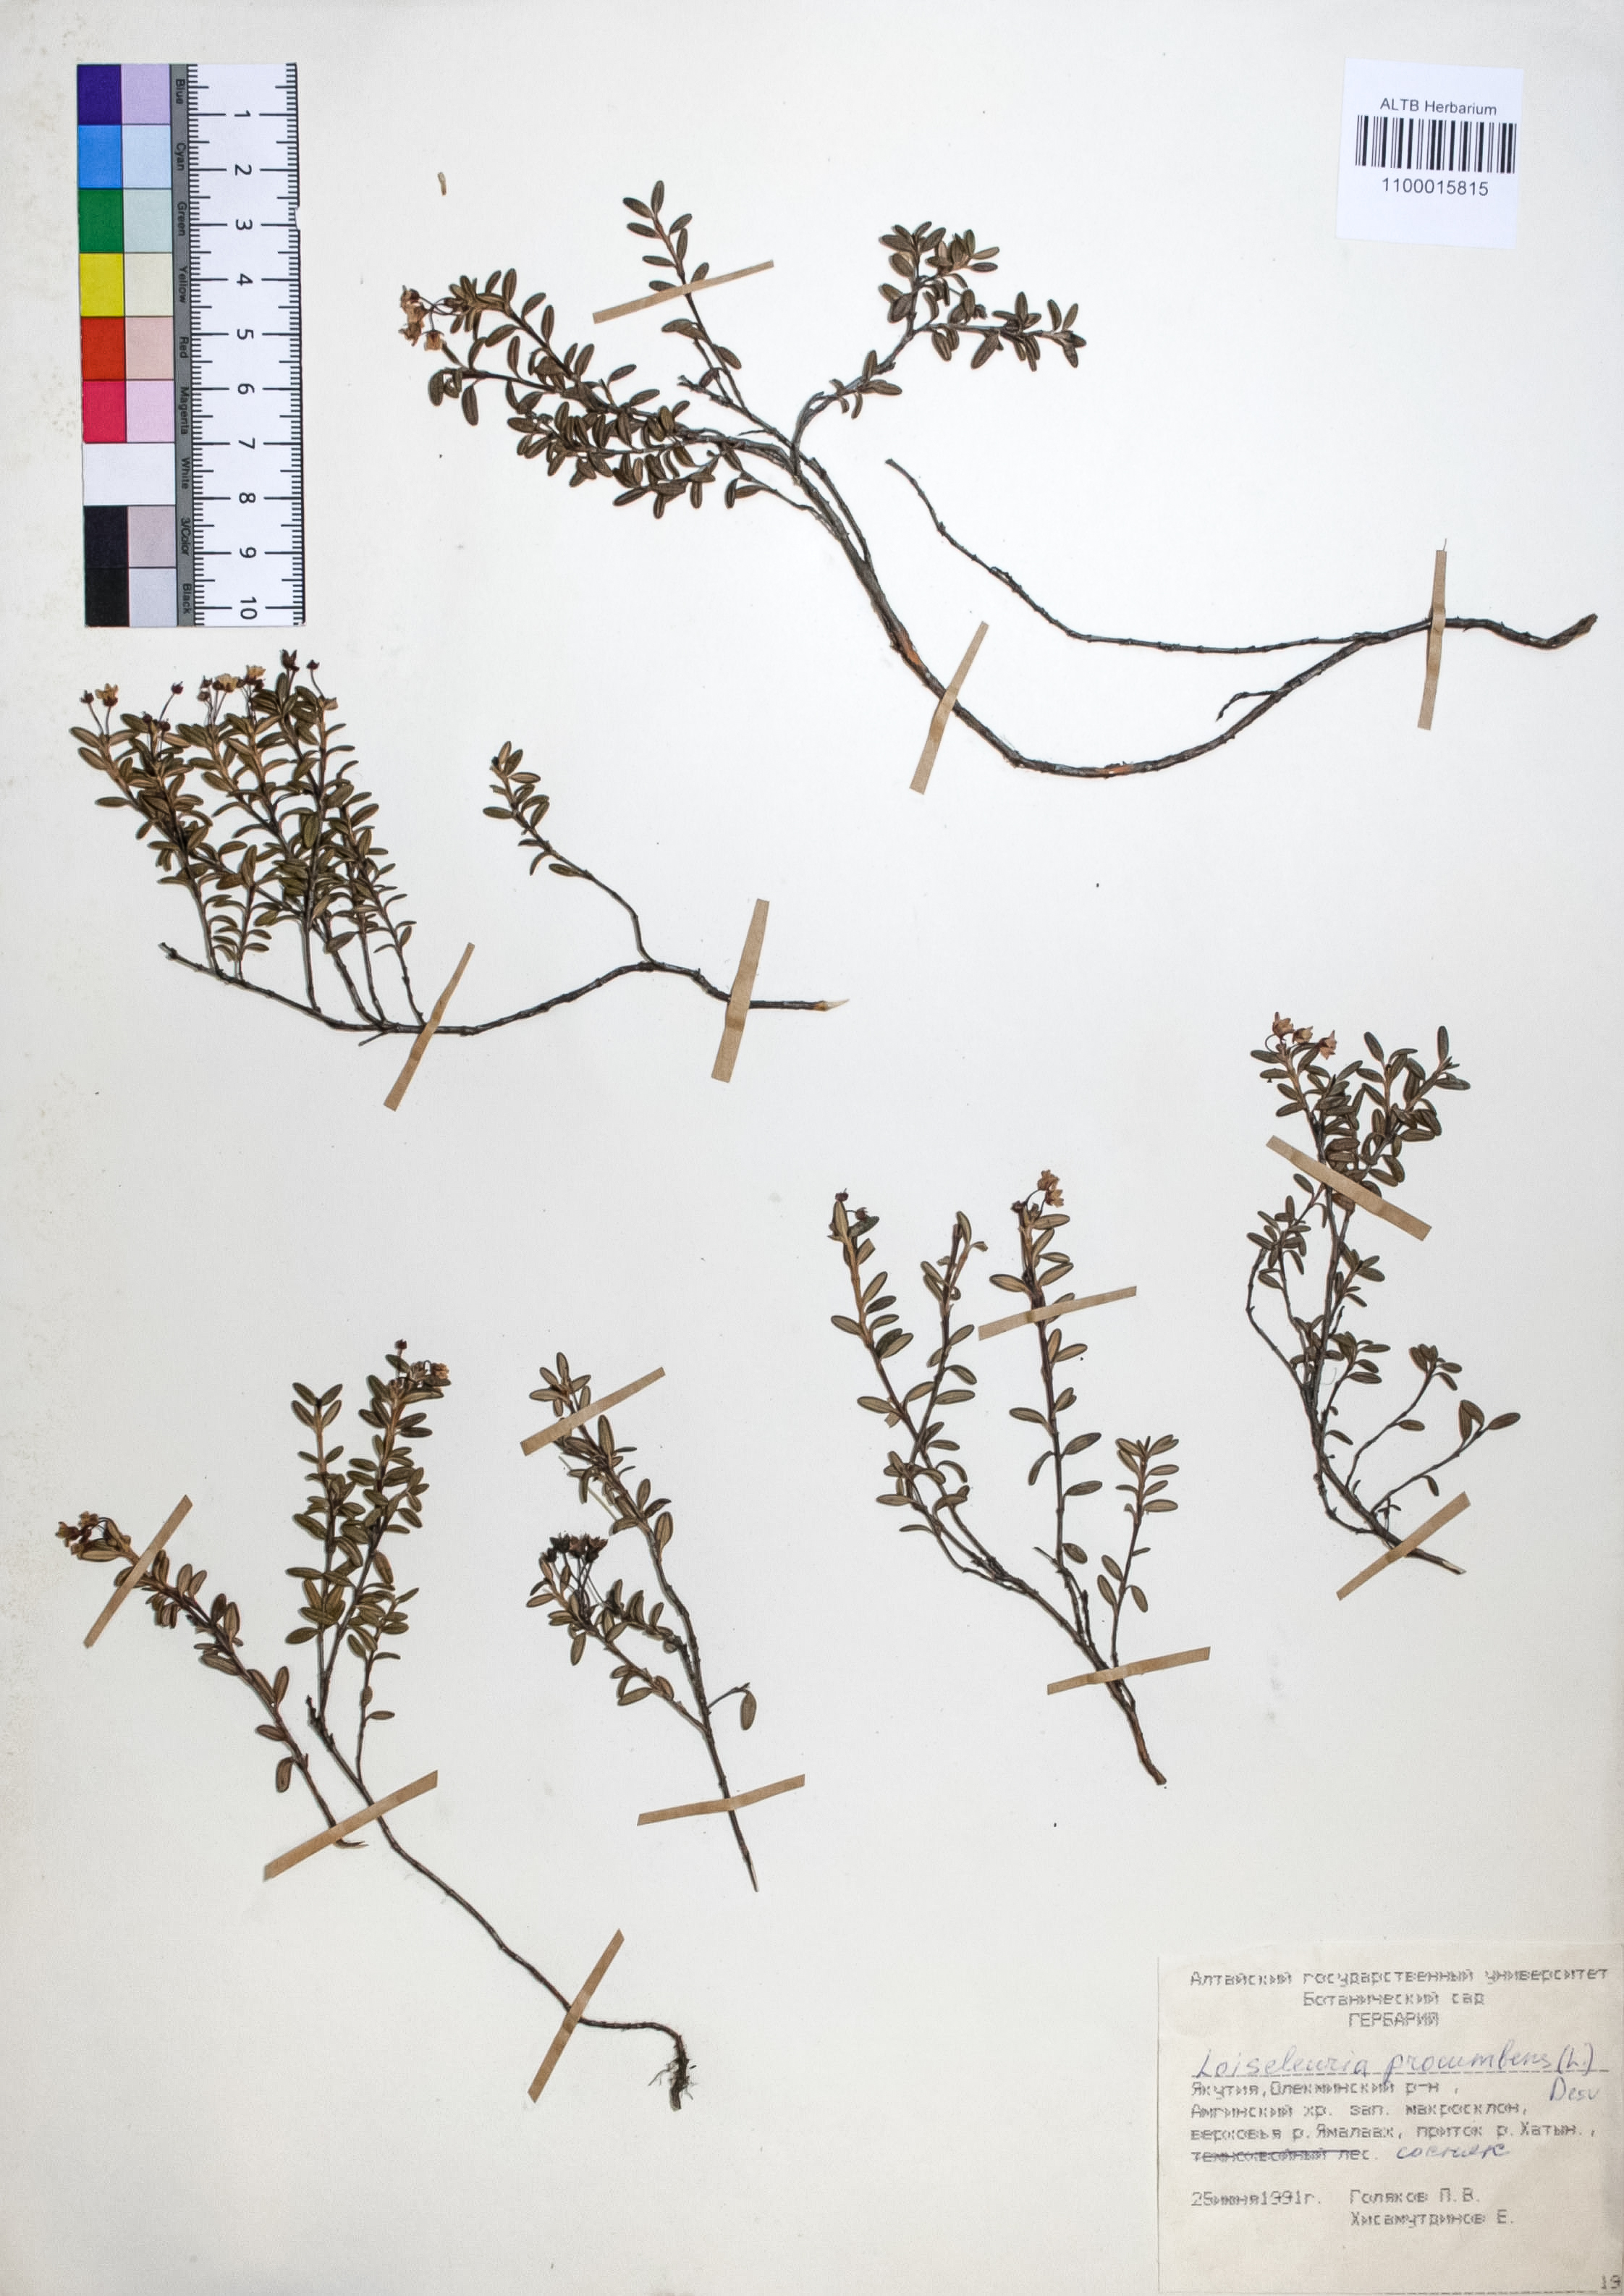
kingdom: Plantae
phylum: Tracheophyta
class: Magnoliopsida
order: Ericales
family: Ericaceae
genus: Kalmia
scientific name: Kalmia procumbens
